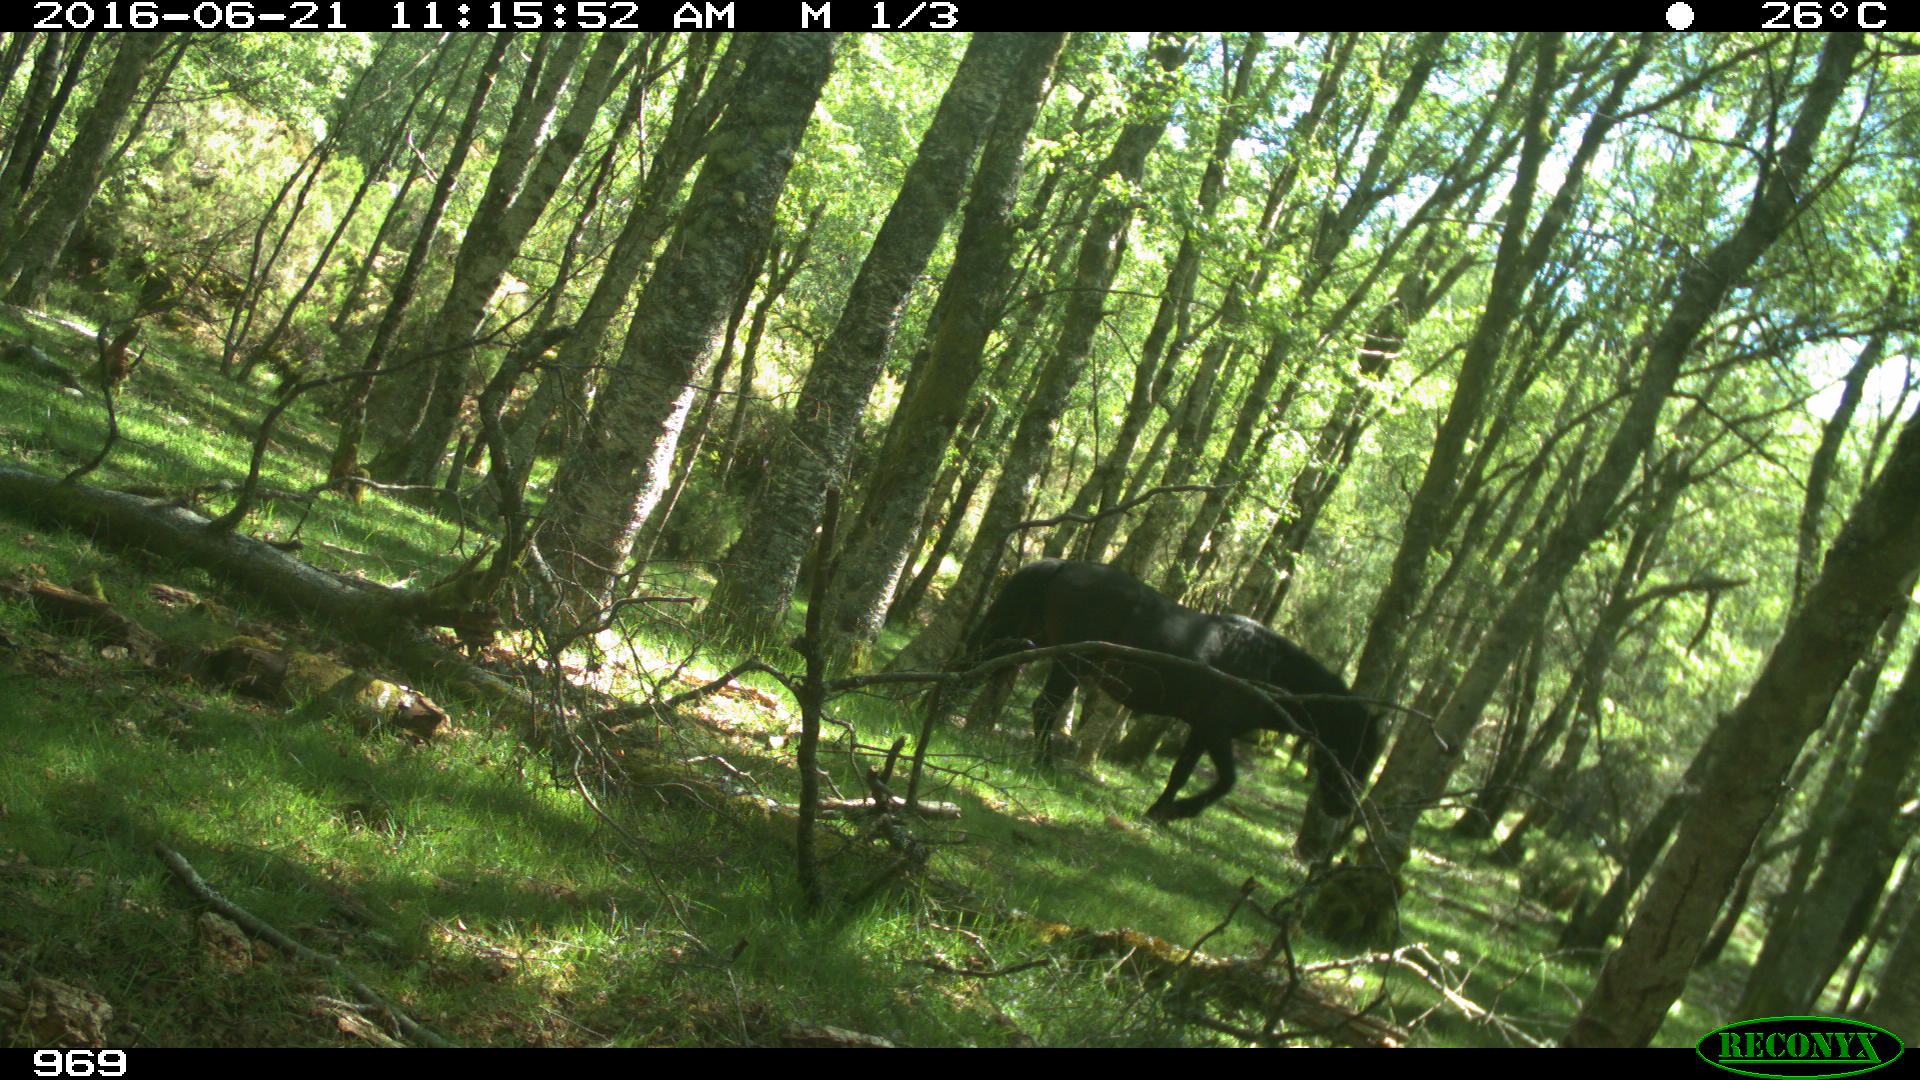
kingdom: Animalia
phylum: Chordata
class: Mammalia
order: Perissodactyla
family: Equidae
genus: Equus
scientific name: Equus caballus
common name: Horse
